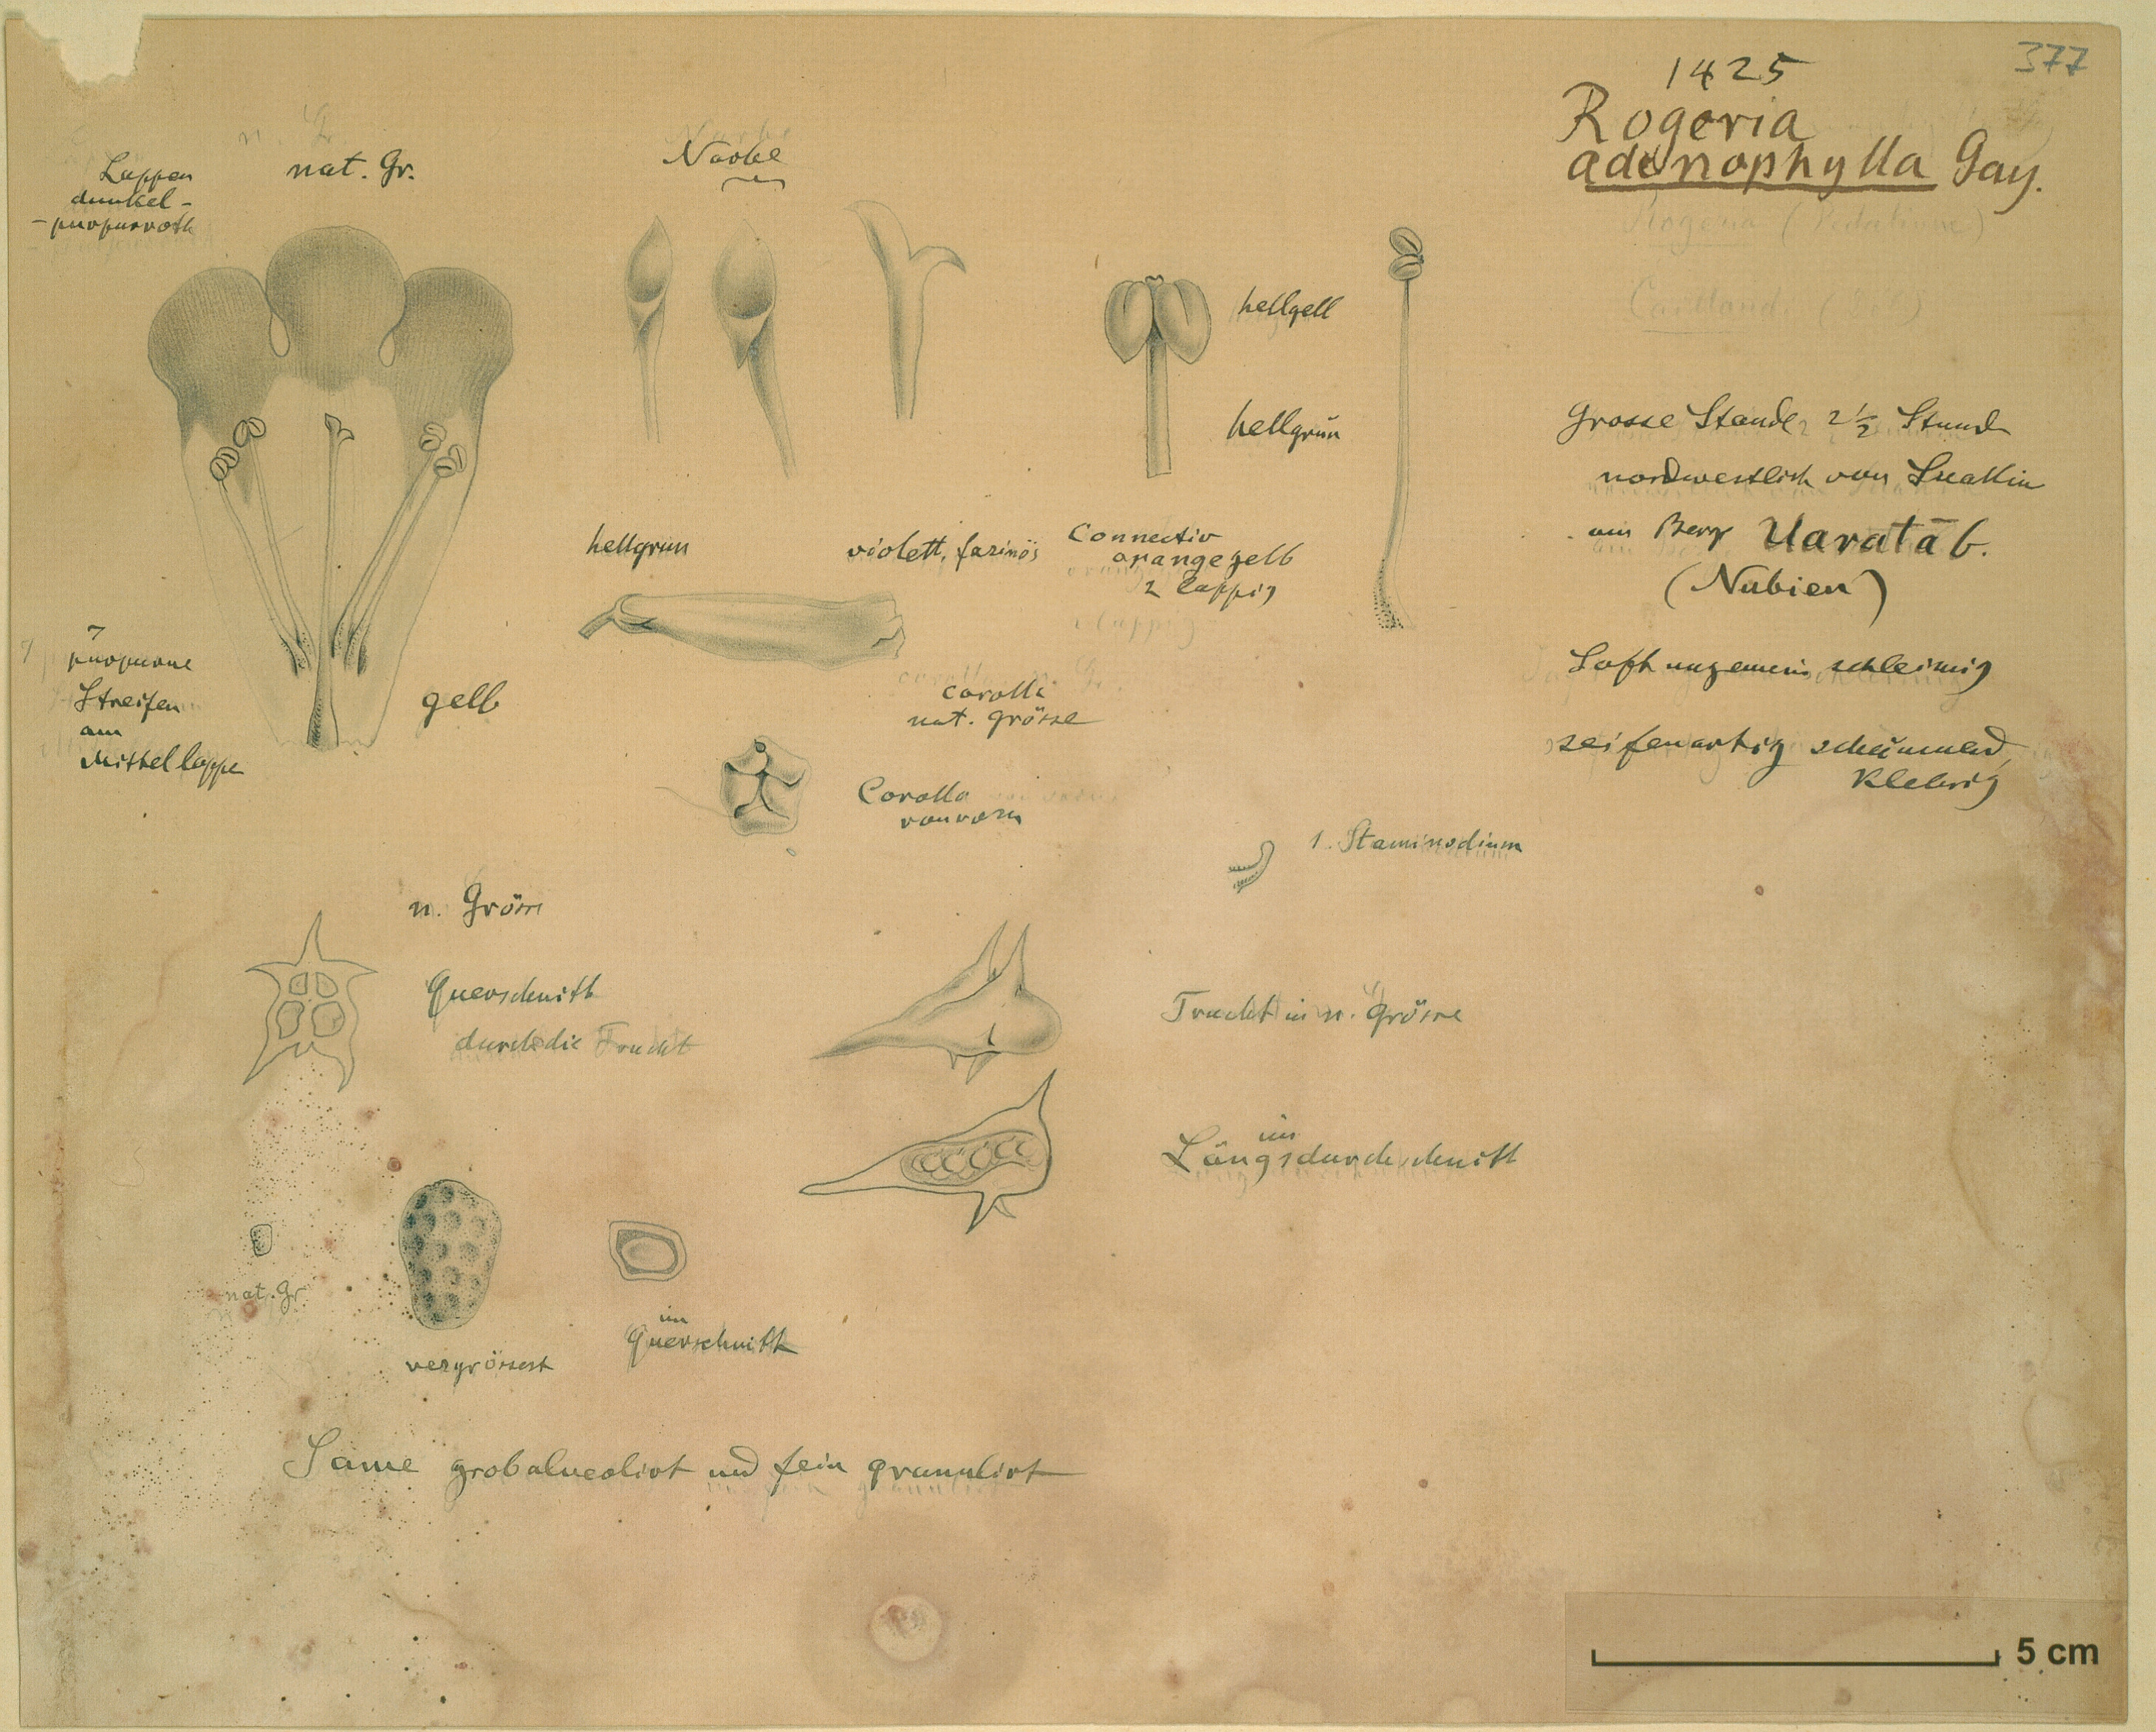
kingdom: Plantae
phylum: Tracheophyta
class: Magnoliopsida
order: Lamiales
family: Pedaliaceae
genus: Rogeria
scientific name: Rogeria adenophylla
